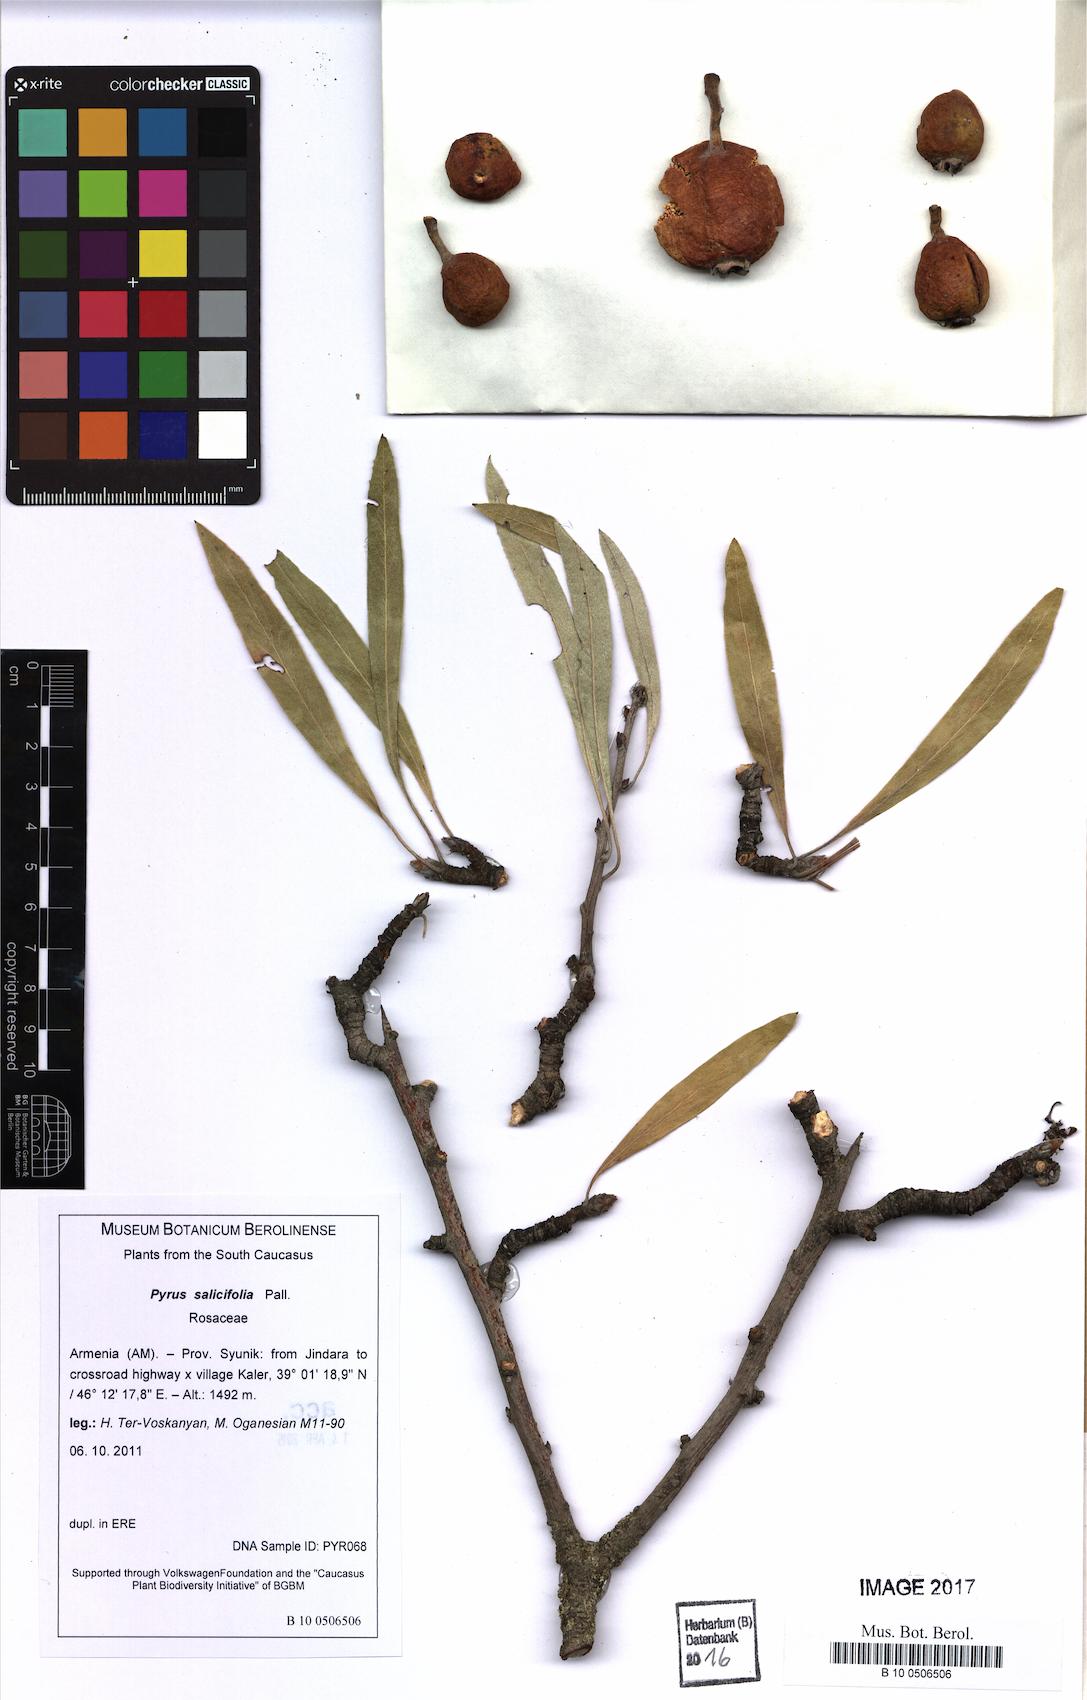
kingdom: Plantae
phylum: Tracheophyta
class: Magnoliopsida
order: Rosales
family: Rosaceae
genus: Pyrus
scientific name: Pyrus salicifolia
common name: Willow-leaved pear
